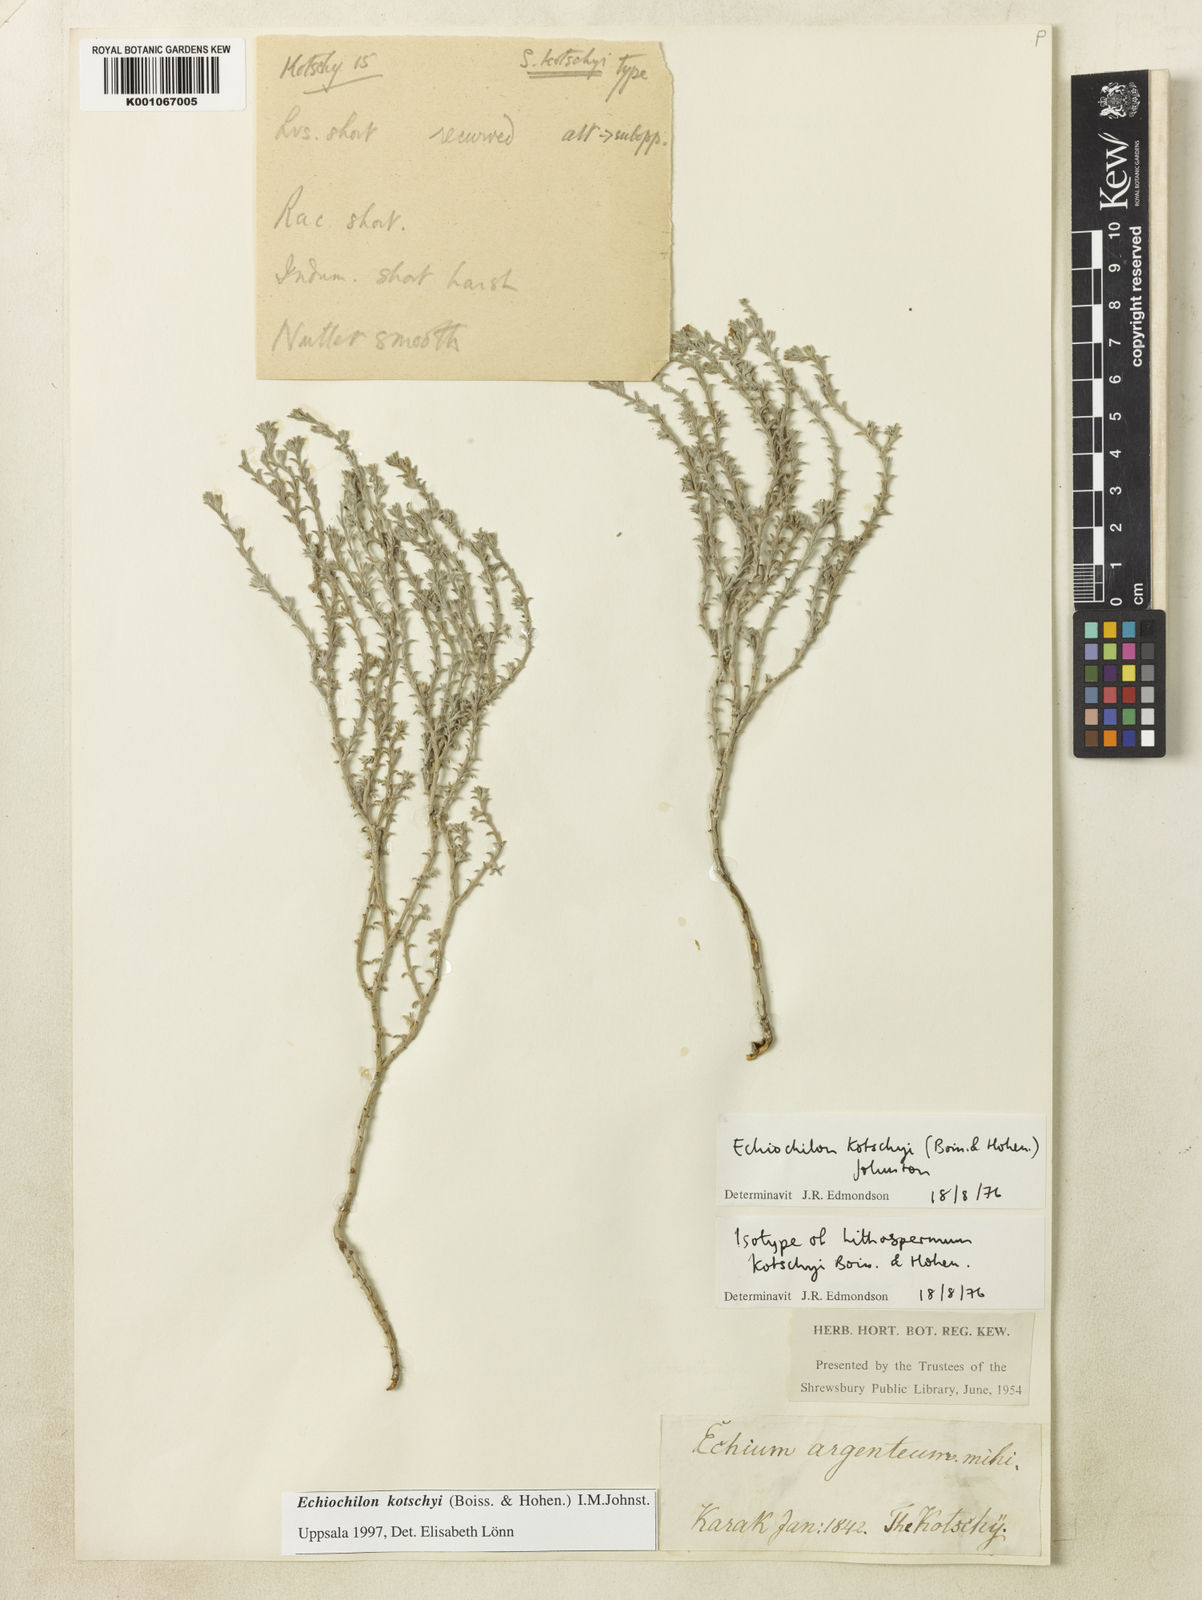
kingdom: Plantae
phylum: Tracheophyta
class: Magnoliopsida
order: Boraginales
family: Boraginaceae
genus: Echiochilon
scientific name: Echiochilon kotschyi
